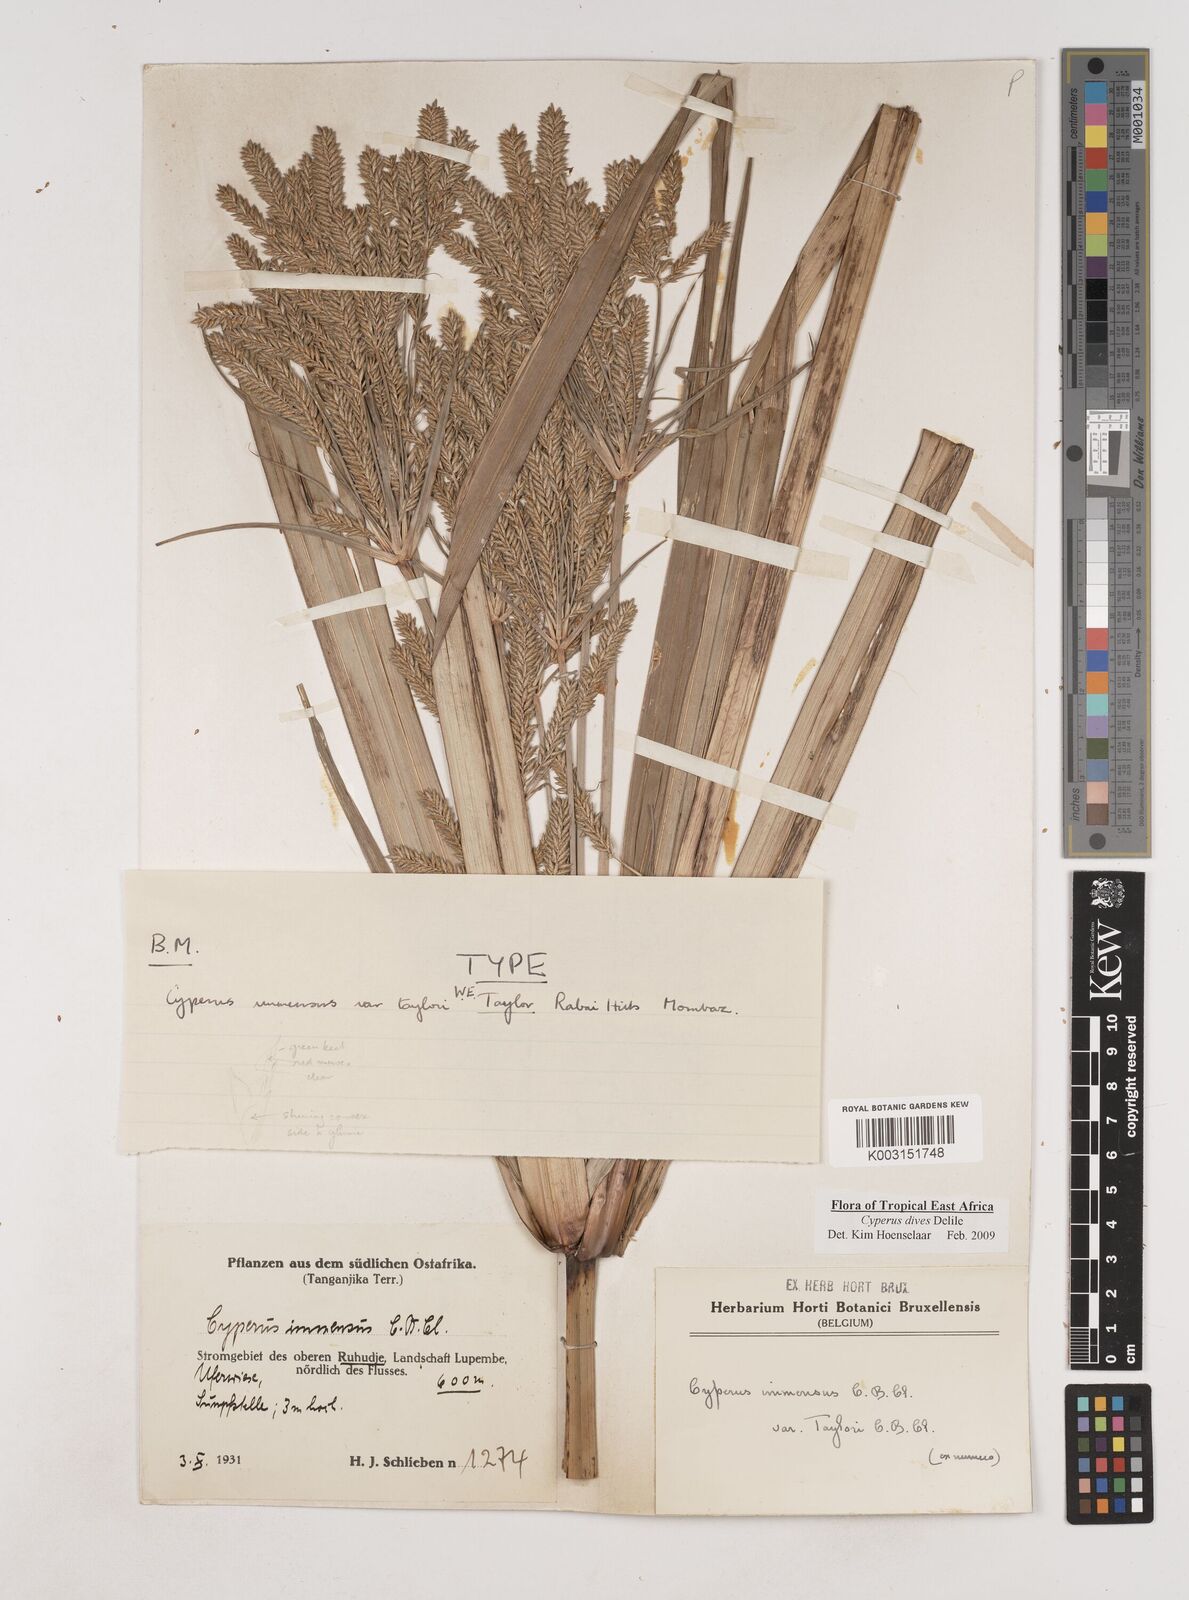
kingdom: Plantae
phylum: Tracheophyta
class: Liliopsida
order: Poales
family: Cyperaceae
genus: Cyperus
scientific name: Cyperus dives
